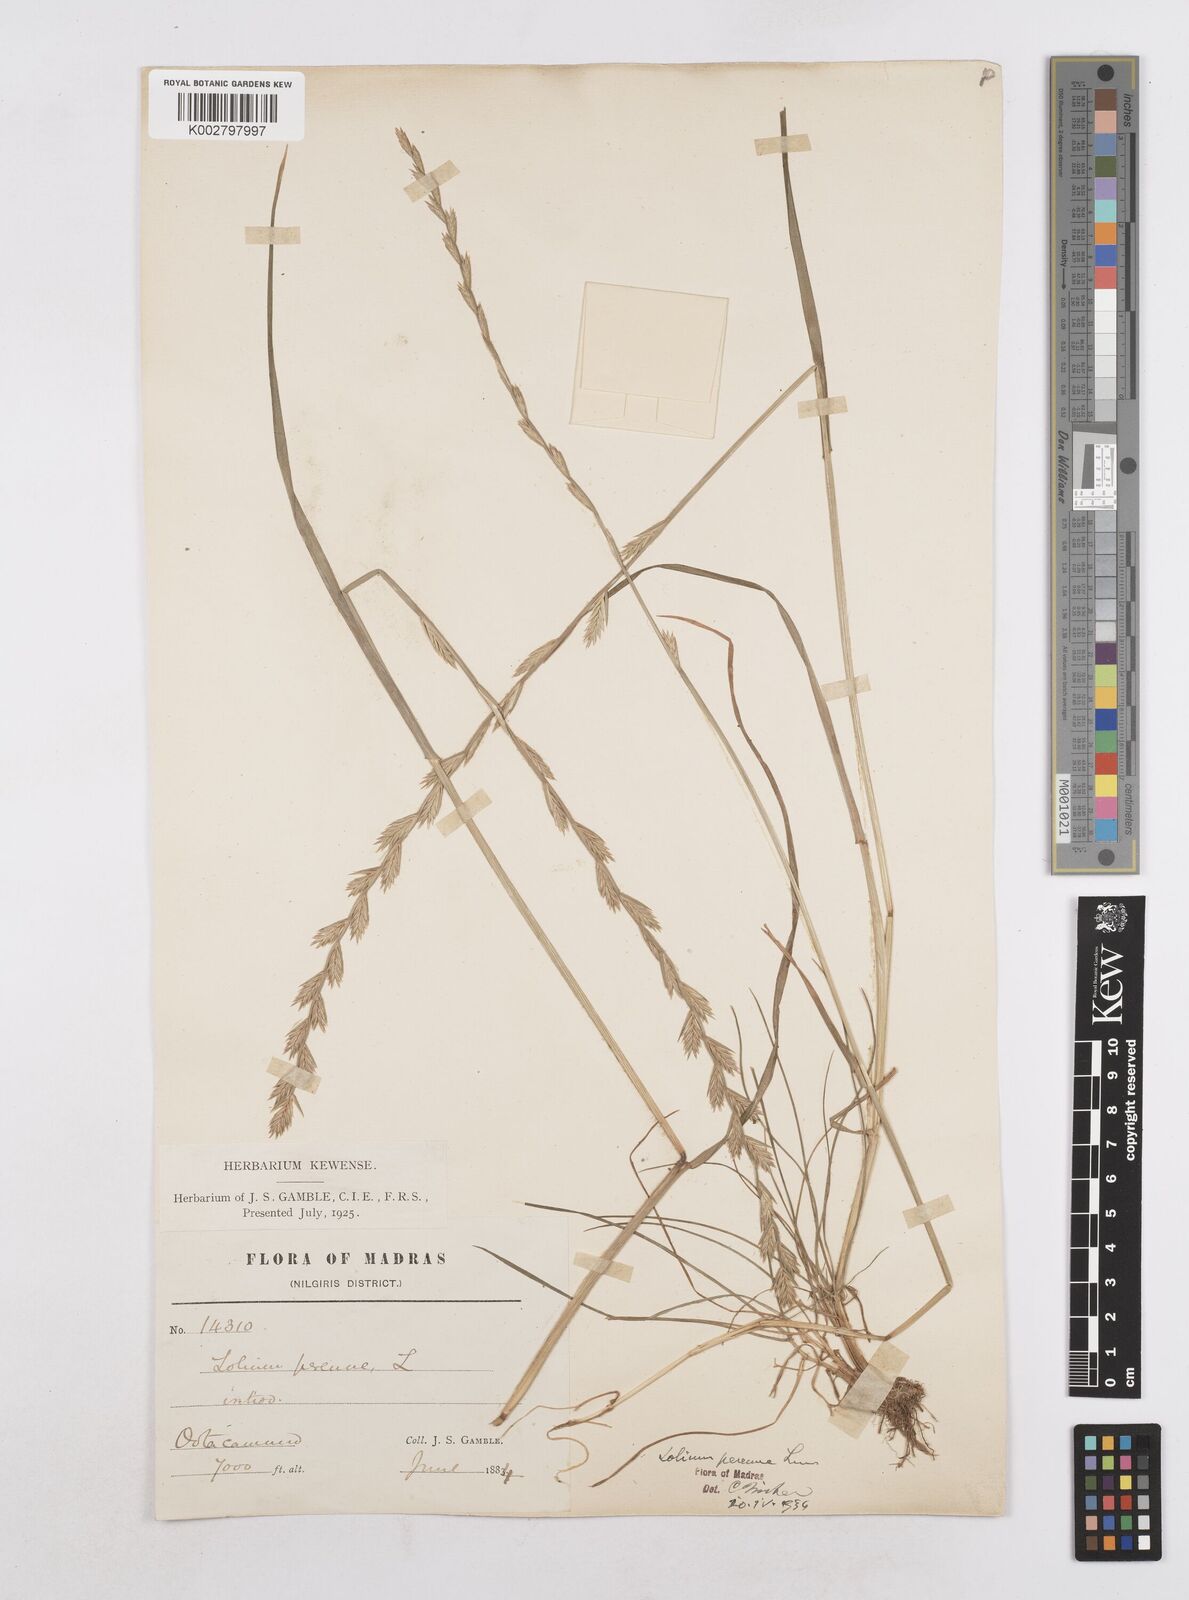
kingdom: Plantae
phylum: Tracheophyta
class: Liliopsida
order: Poales
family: Poaceae
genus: Lolium
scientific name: Lolium perenne
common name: Perennial ryegrass
